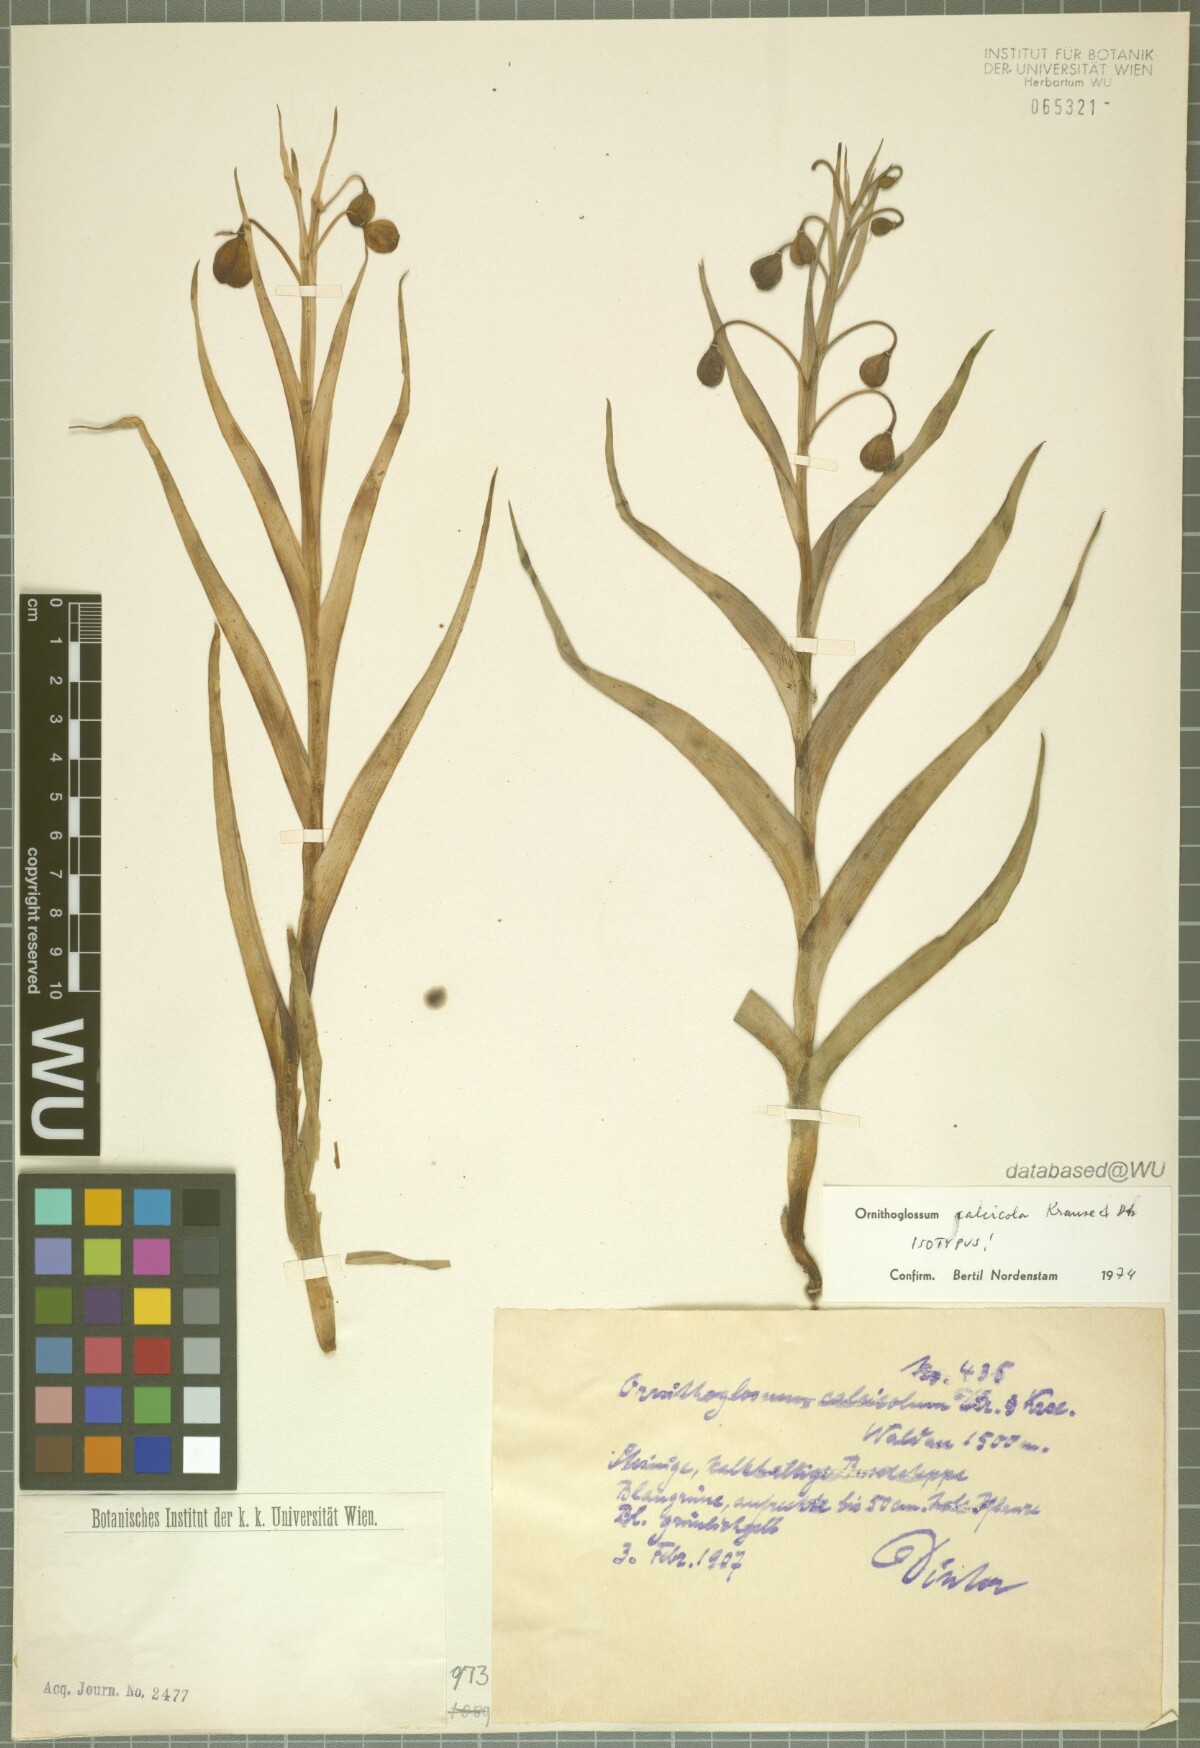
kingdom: Plantae
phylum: Tracheophyta
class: Liliopsida
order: Liliales
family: Colchicaceae
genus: Ornithoglossum
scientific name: Ornithoglossum calcicola
